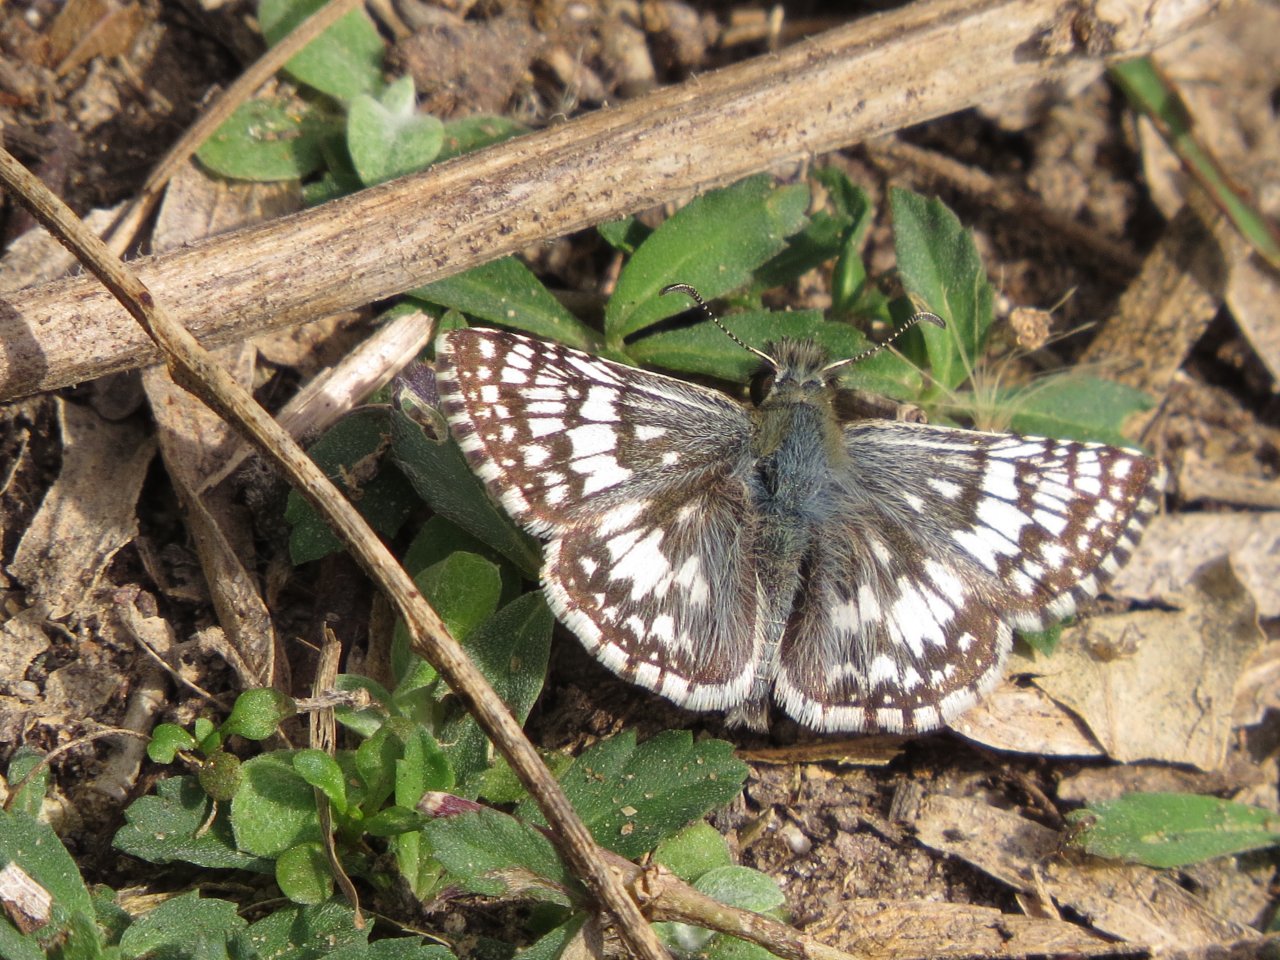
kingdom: Animalia
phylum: Arthropoda
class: Insecta
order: Lepidoptera
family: Hesperiidae
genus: Pyrgus
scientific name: Pyrgus communis
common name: Common Checkered-Skipper
